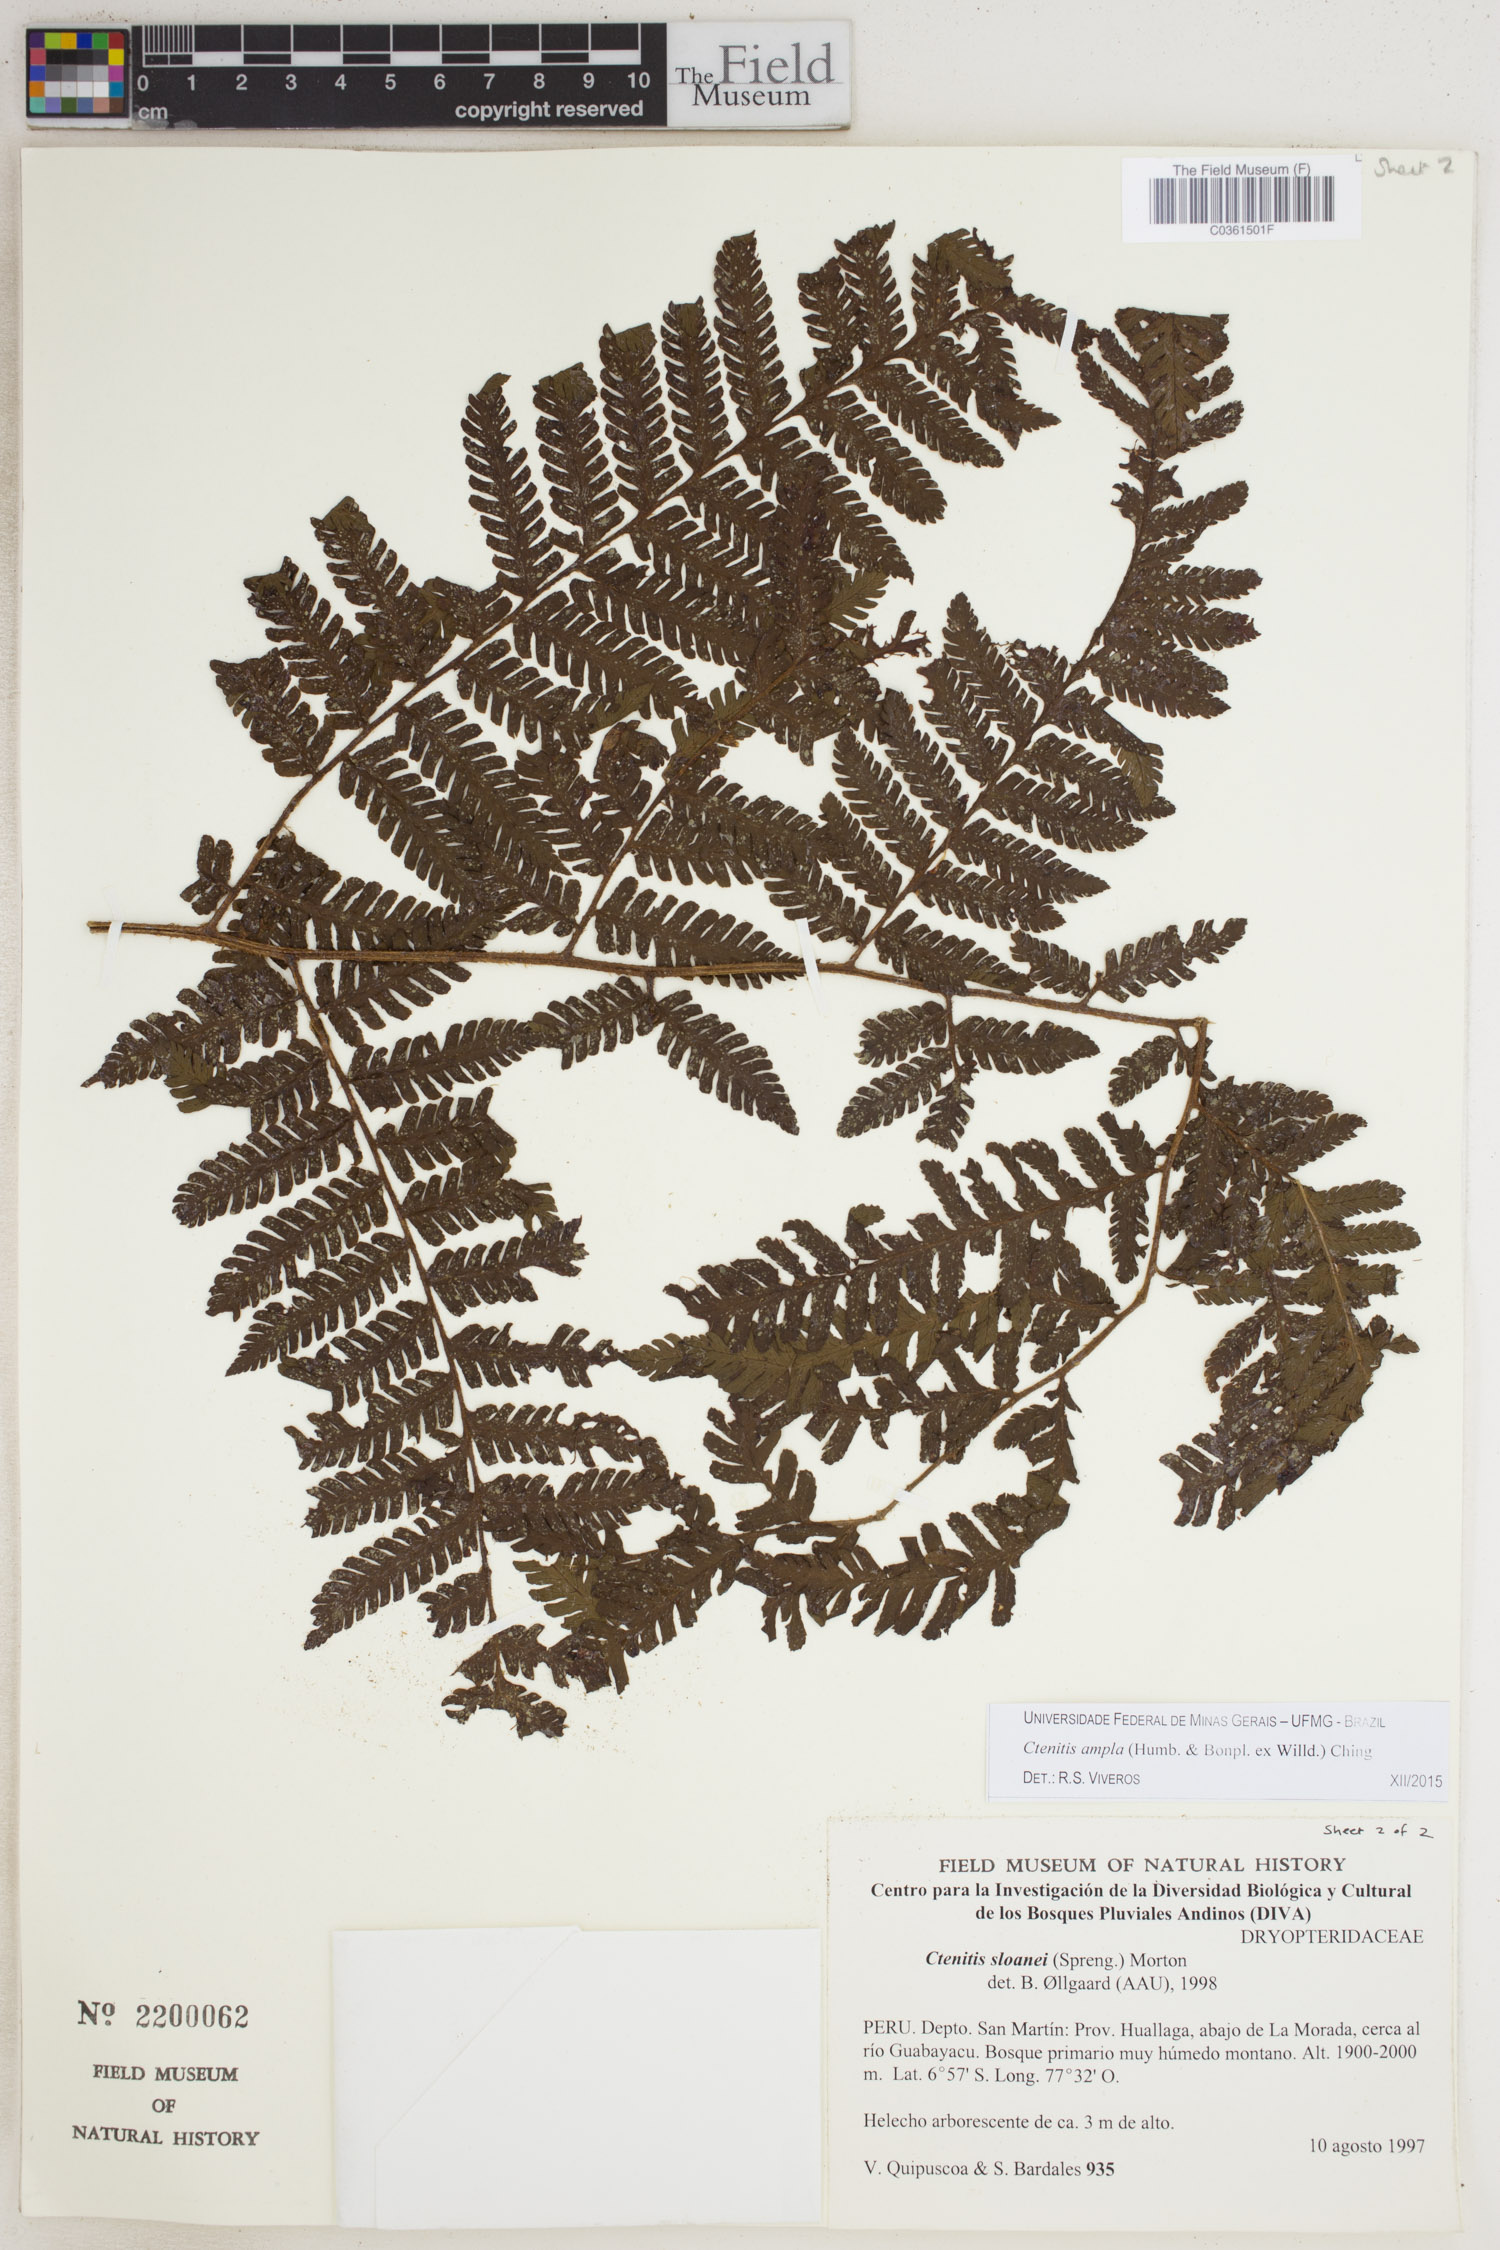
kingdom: Plantae
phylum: Tracheophyta
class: Polypodiopsida
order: Polypodiales
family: Dryopteridaceae
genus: Ctenitis
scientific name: Ctenitis sloanei
